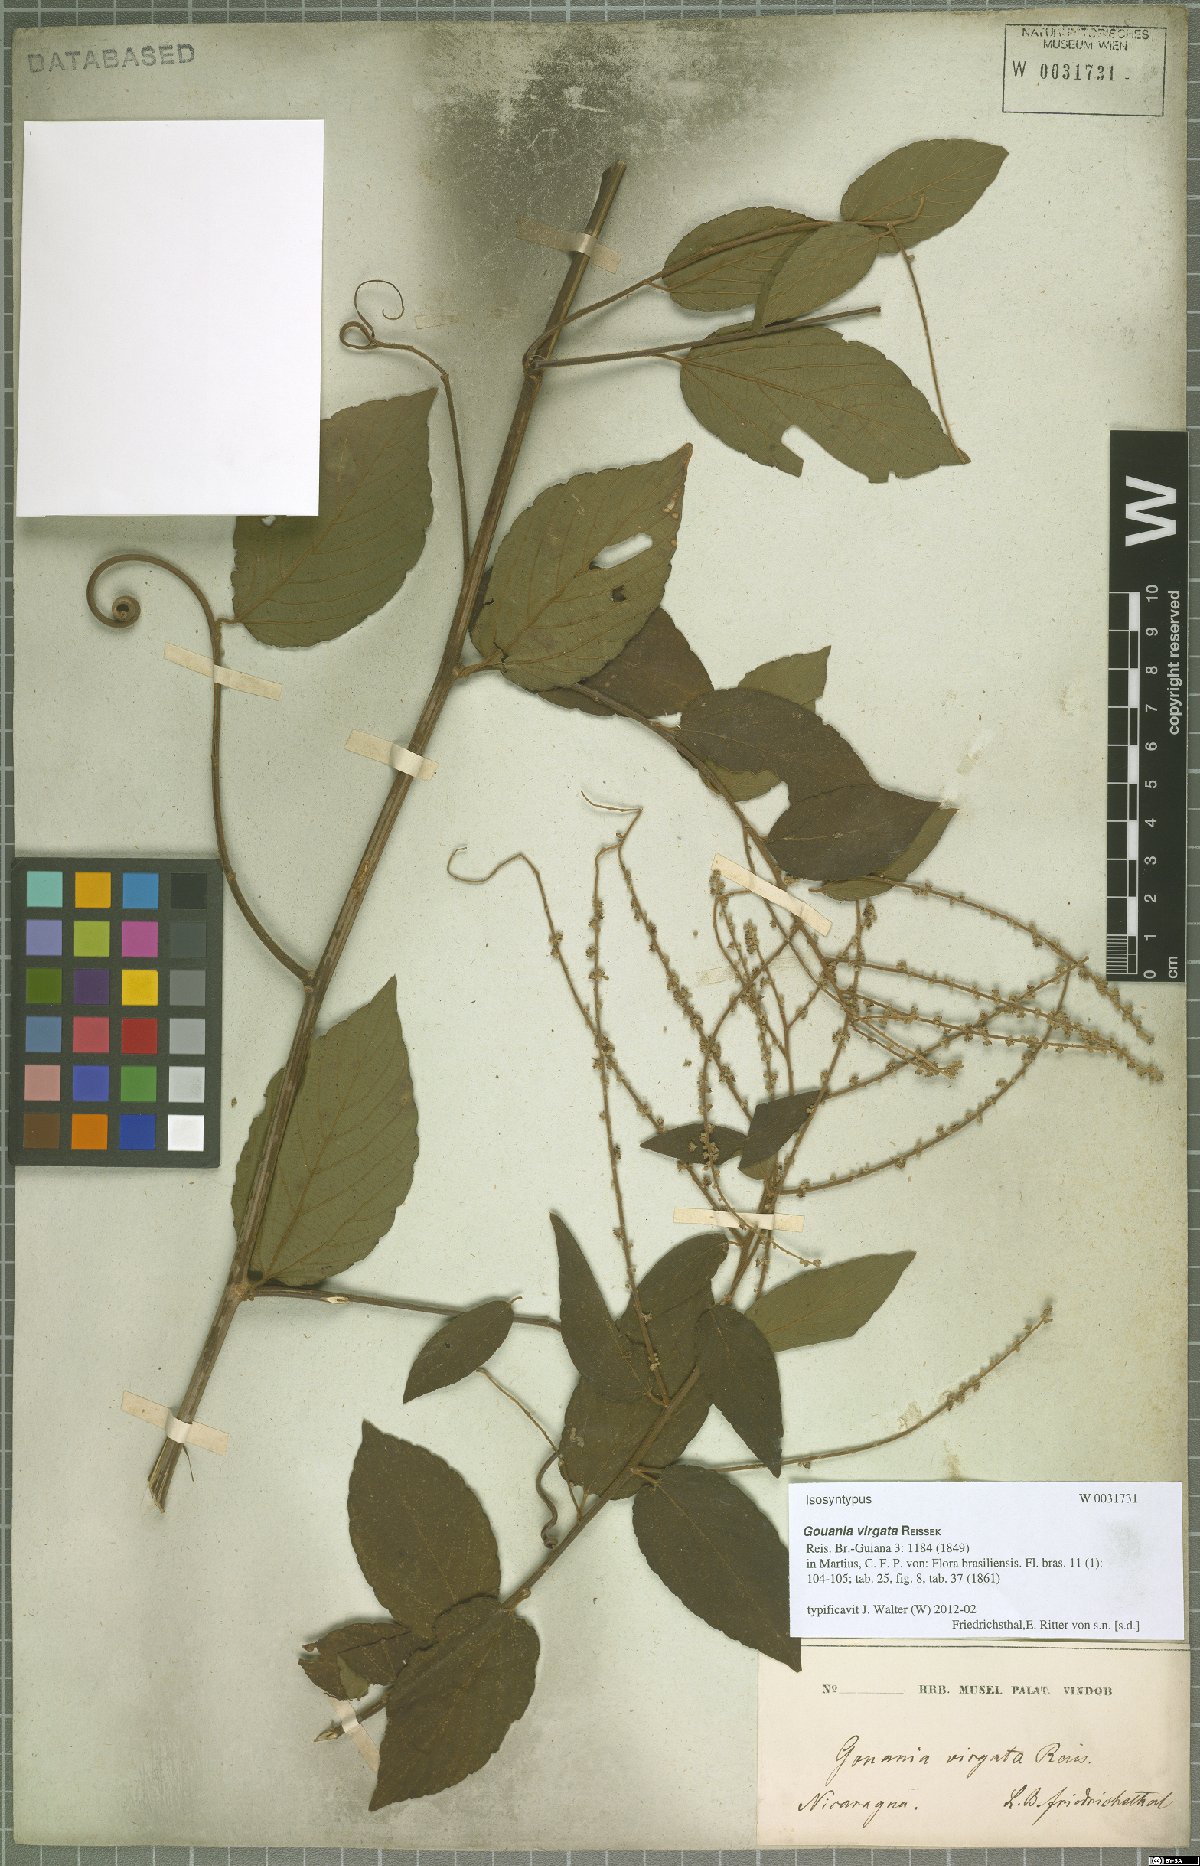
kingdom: Plantae
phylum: Tracheophyta
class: Magnoliopsida
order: Rosales
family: Rhamnaceae
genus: Gouania
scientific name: Gouania lupuloides
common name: Chewstick
